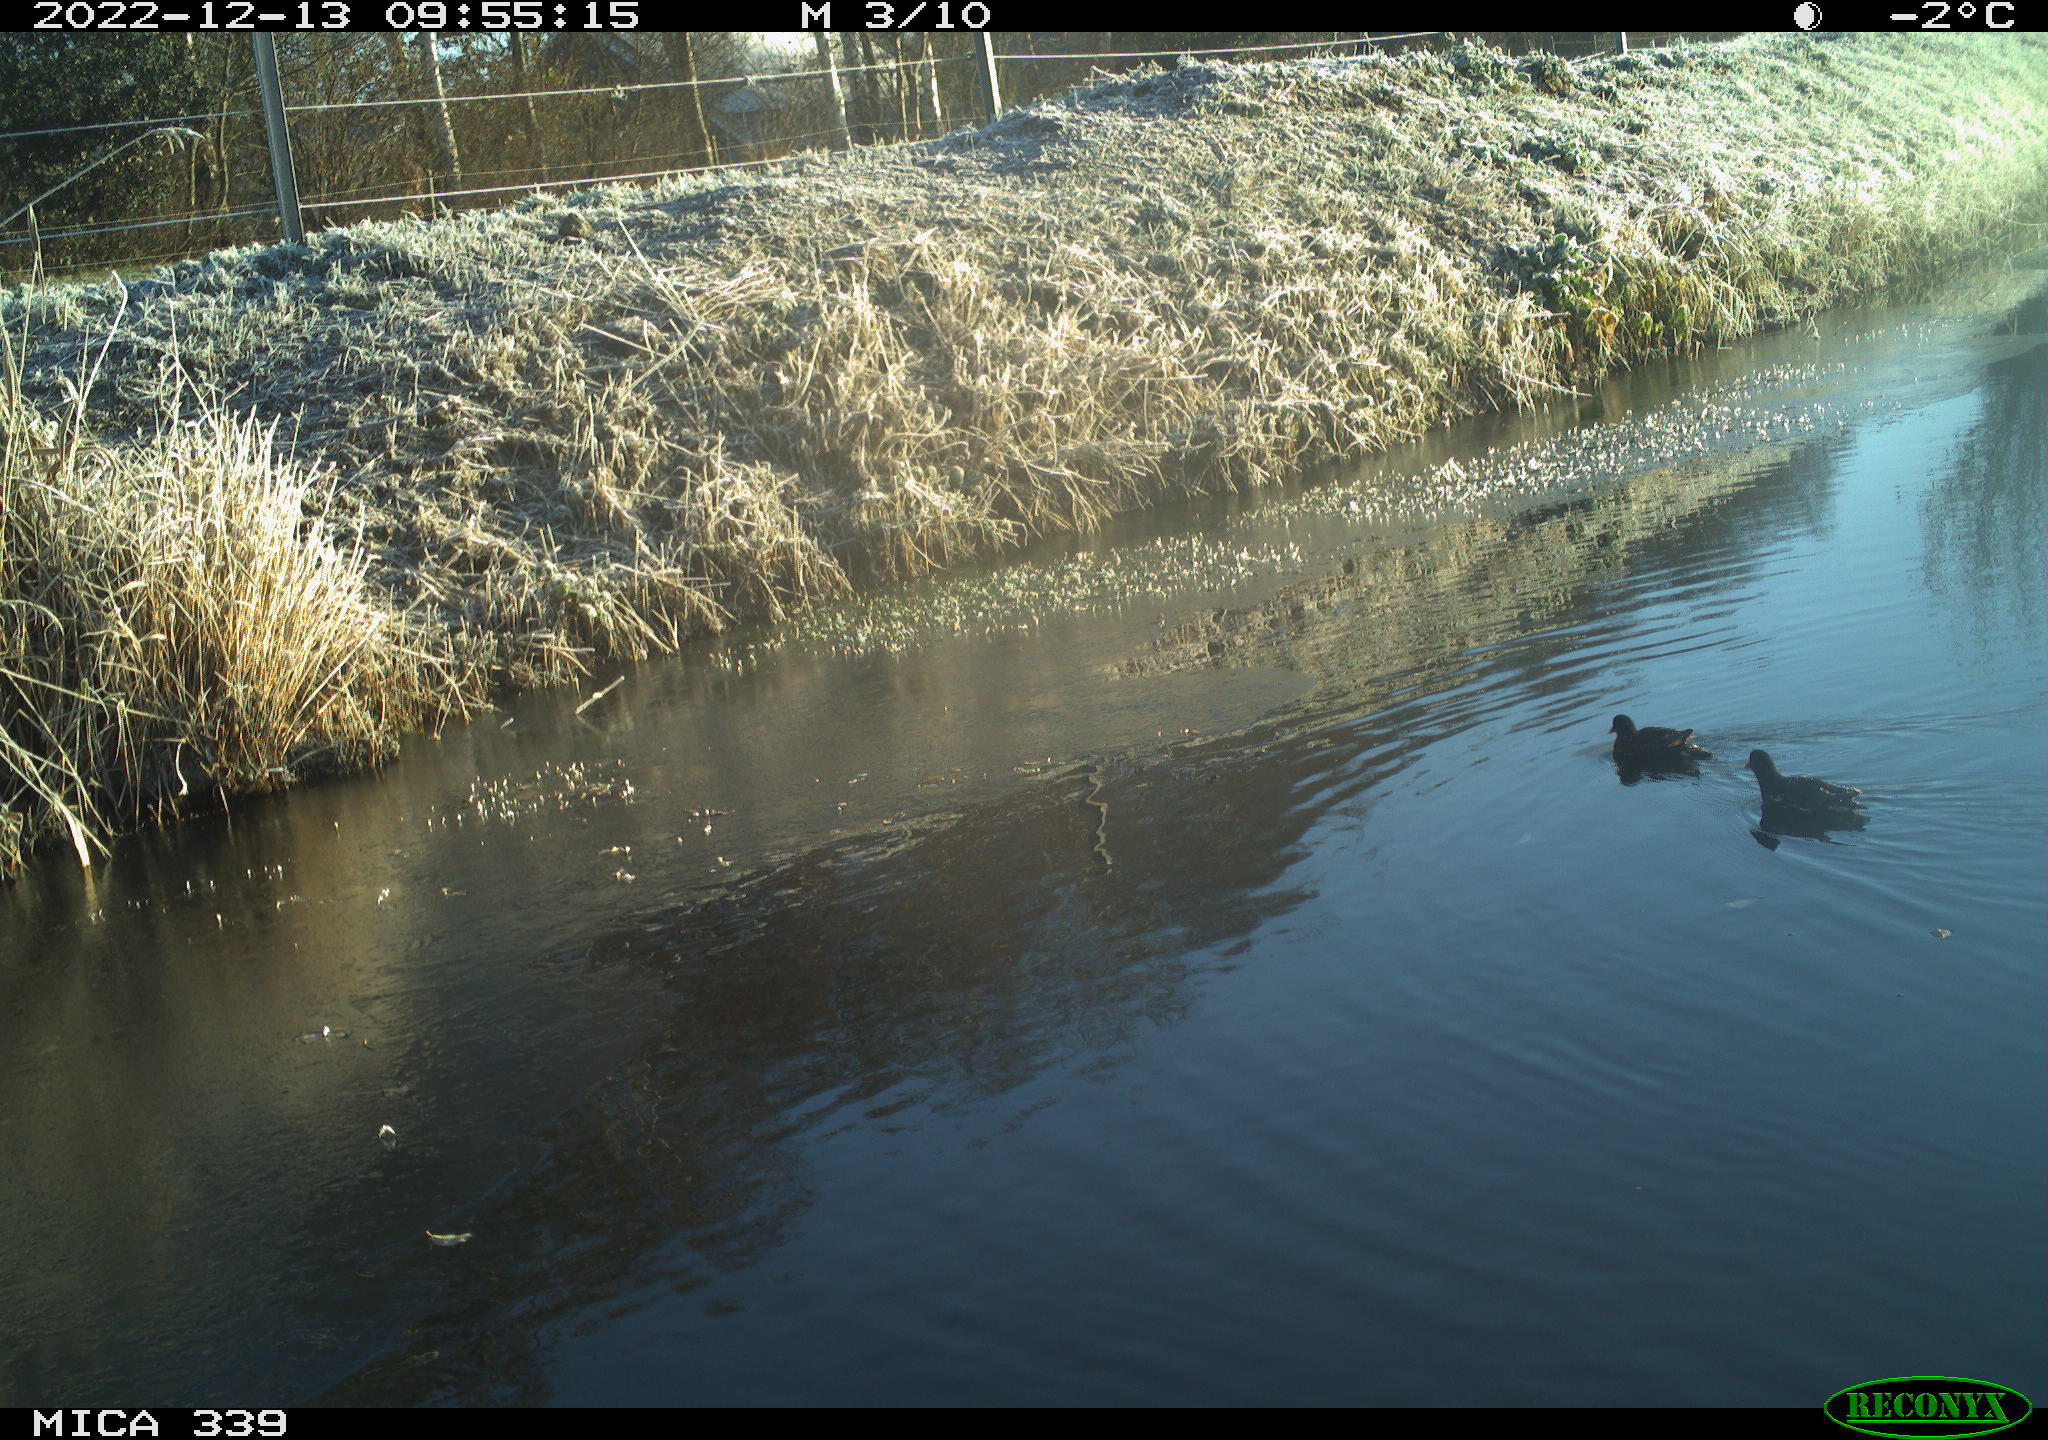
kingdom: Animalia
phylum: Chordata
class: Aves
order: Gruiformes
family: Rallidae
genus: Gallinula
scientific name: Gallinula chloropus
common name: Common moorhen
